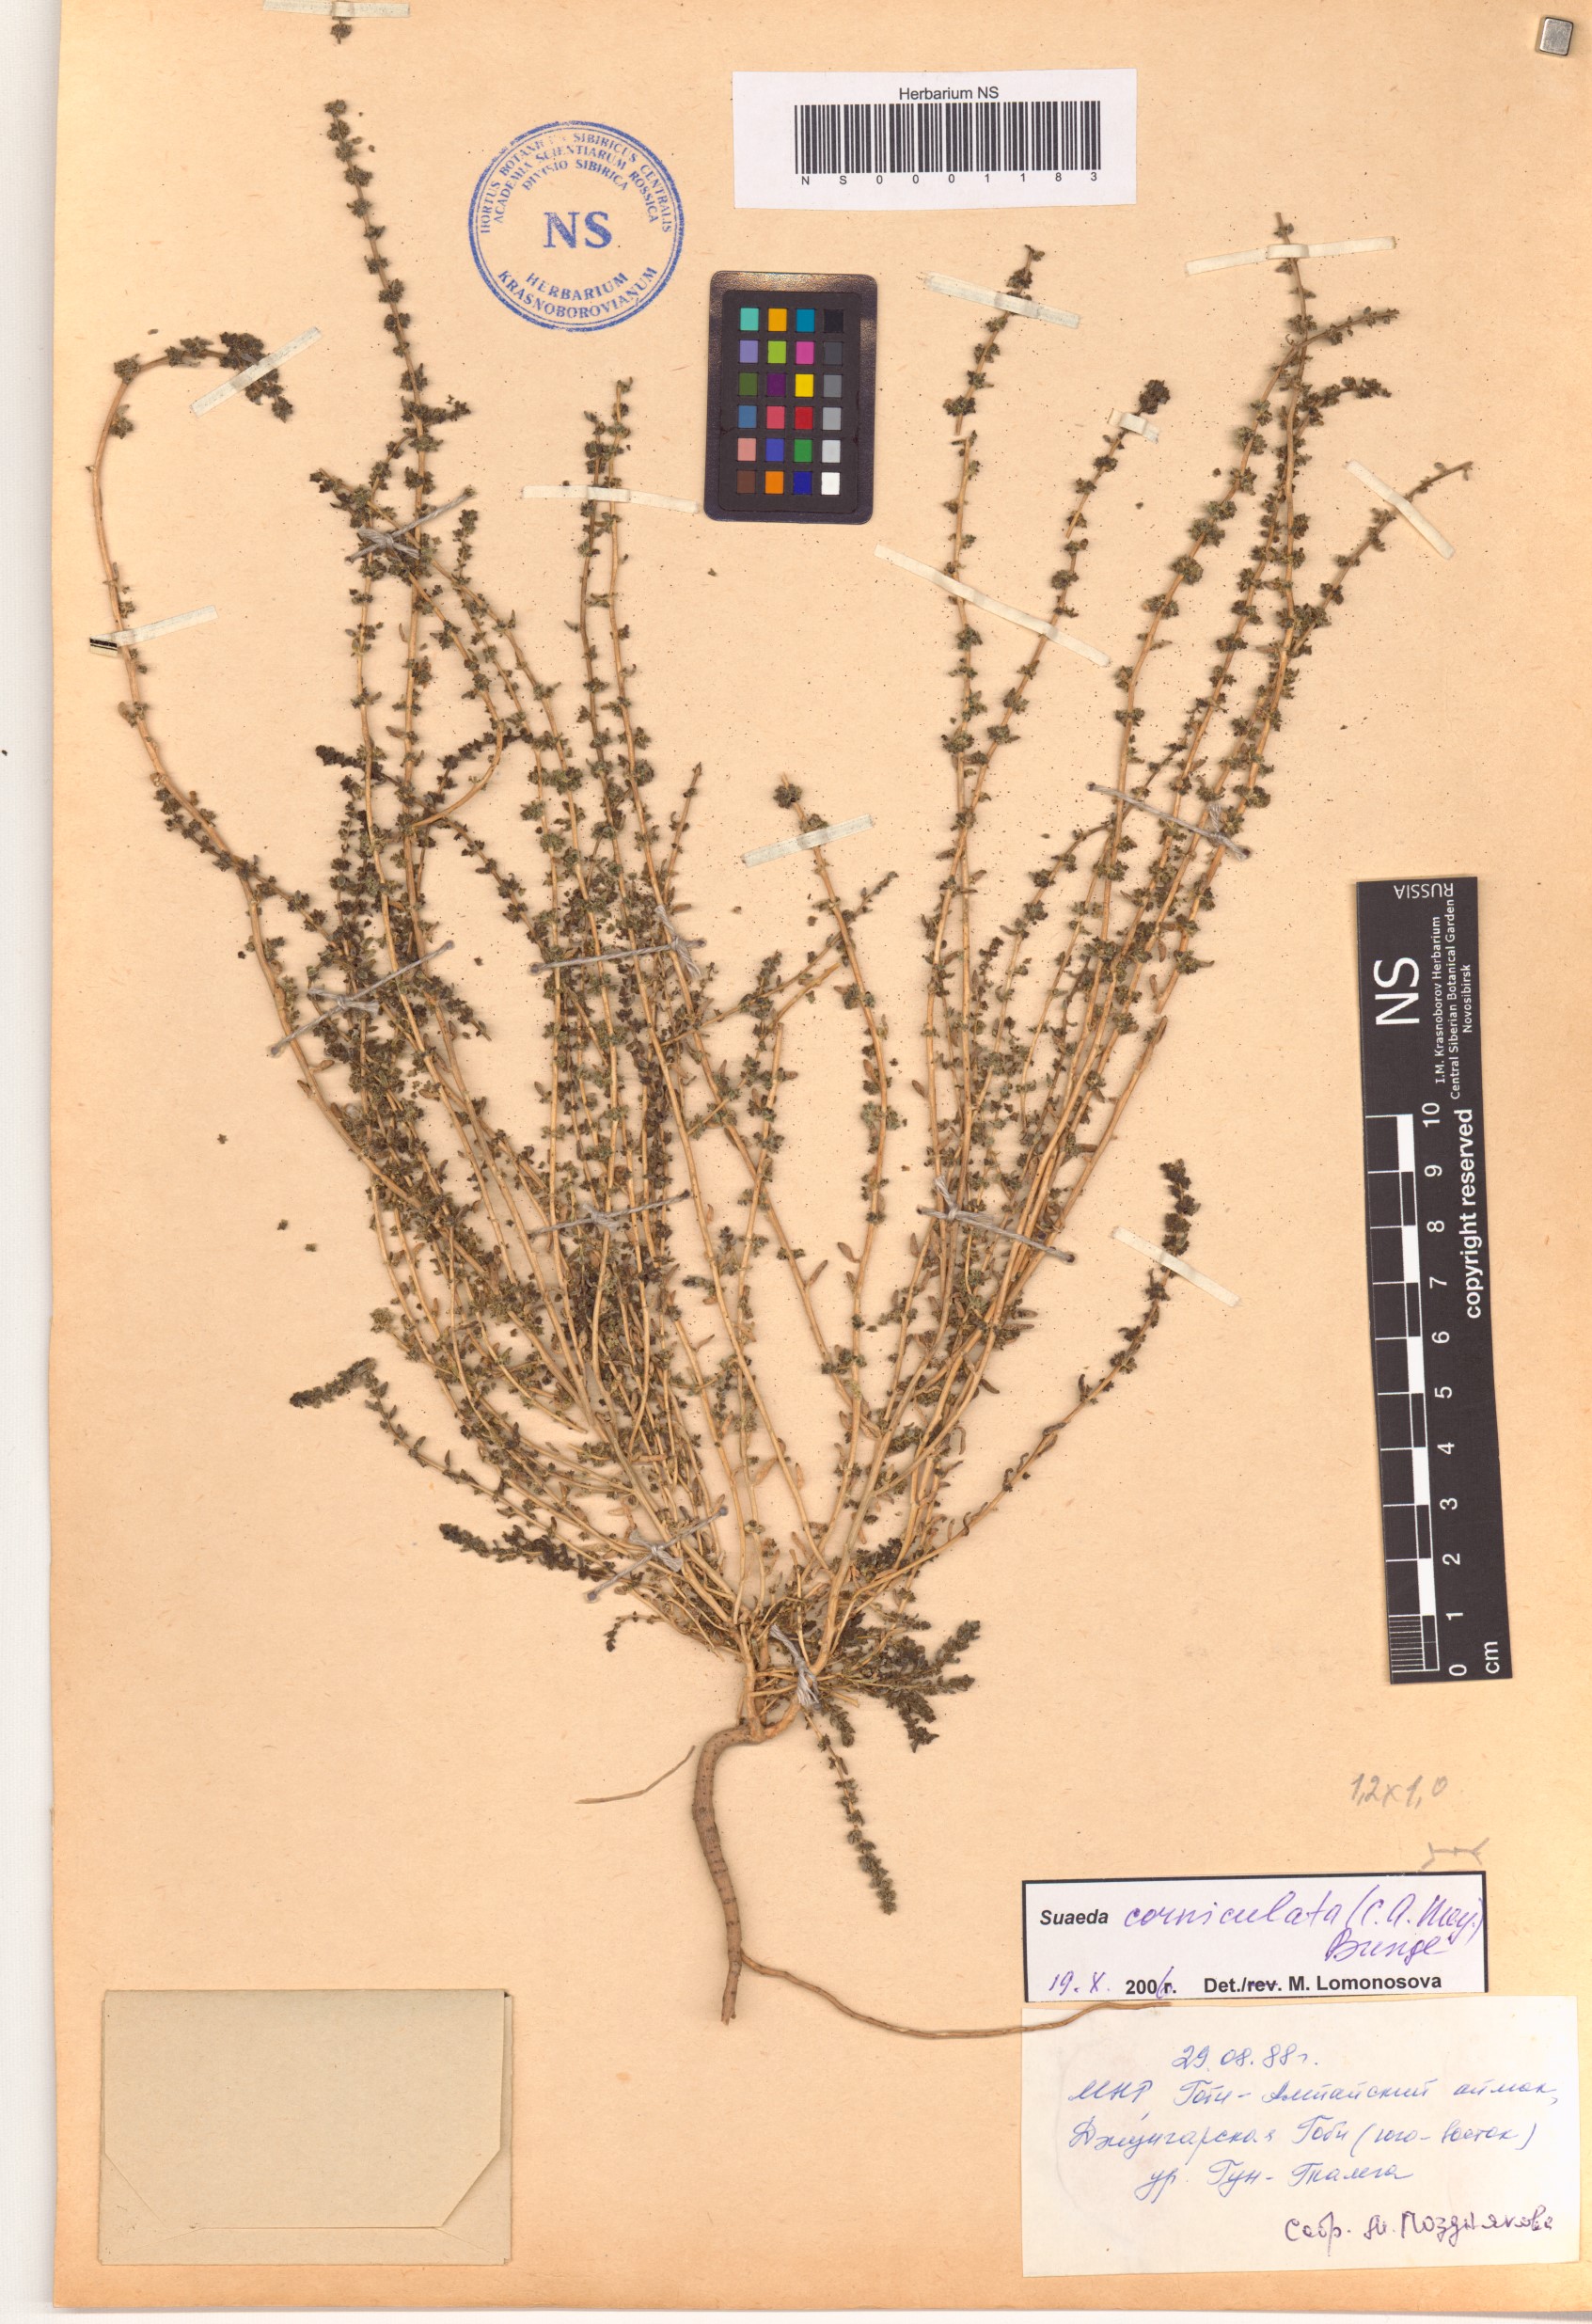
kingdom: Plantae
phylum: Tracheophyta
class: Magnoliopsida
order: Caryophyllales
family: Amaranthaceae
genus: Suaeda
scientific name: Suaeda corniculata
